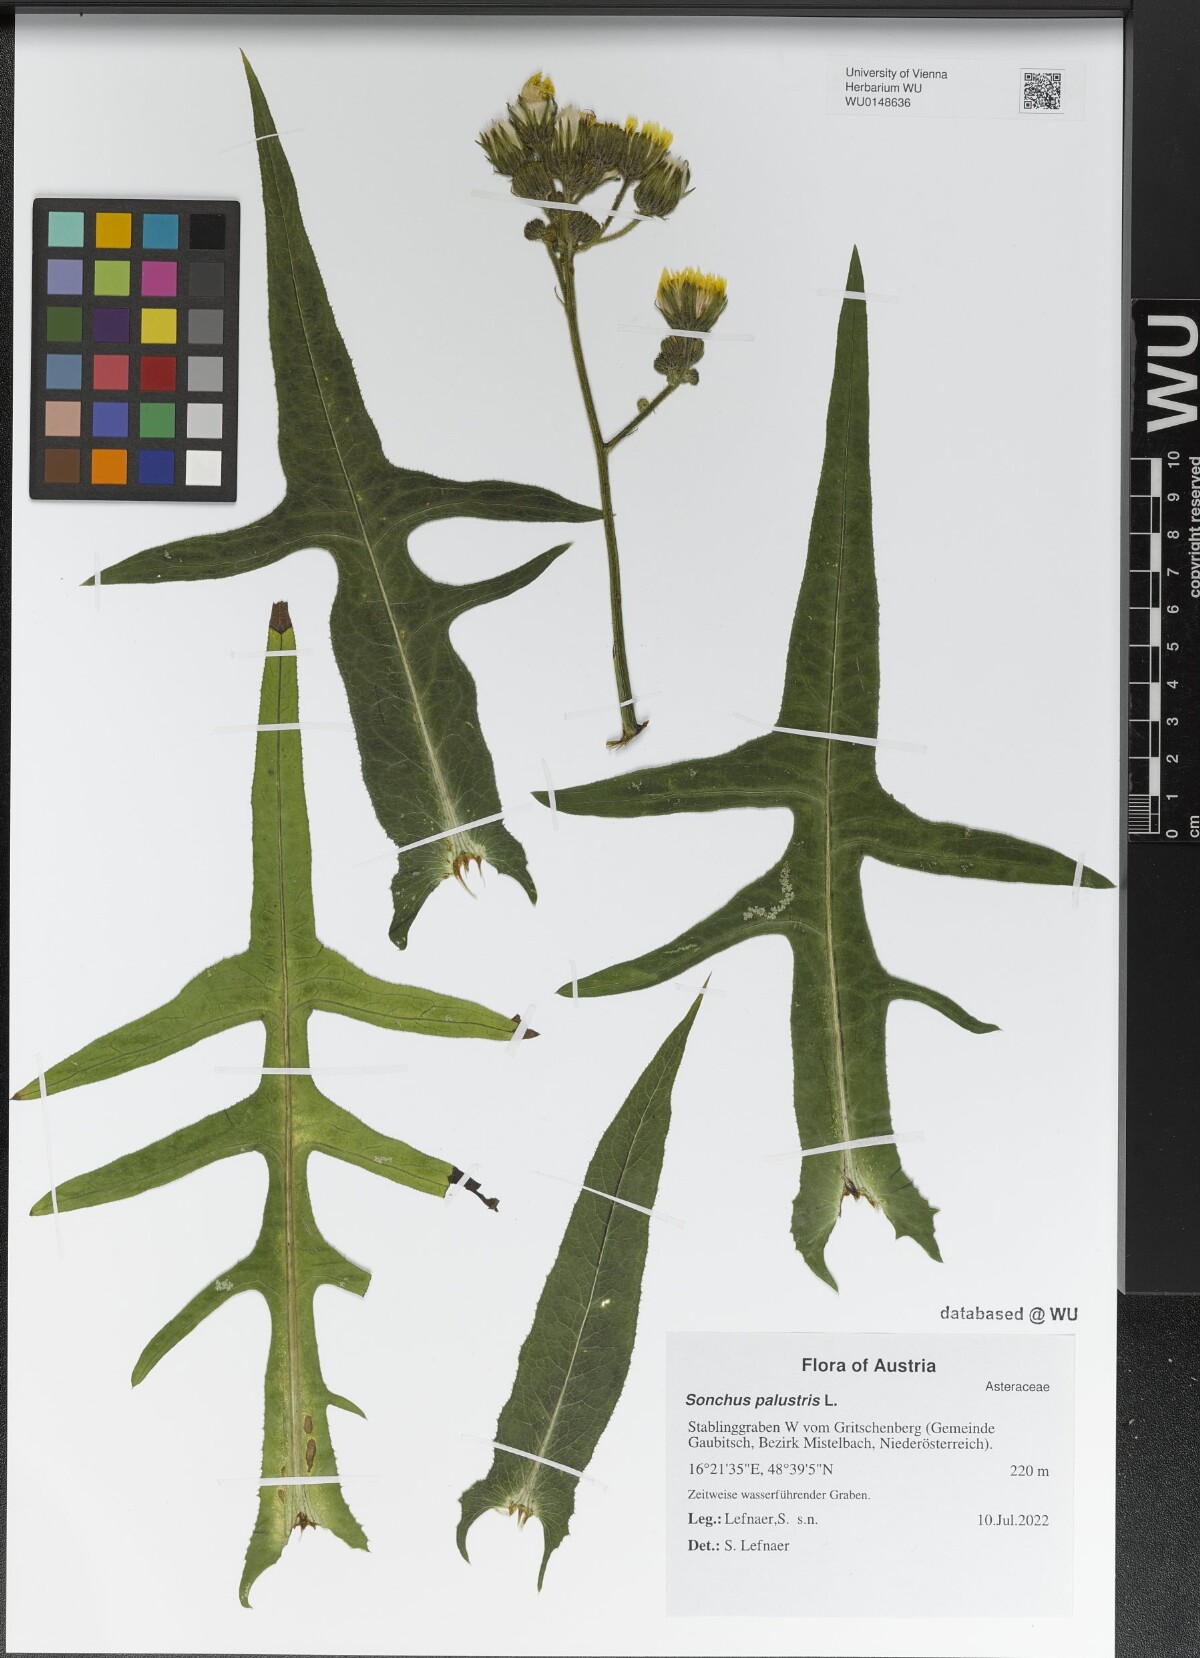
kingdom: Plantae
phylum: Tracheophyta
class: Magnoliopsida
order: Asterales
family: Asteraceae
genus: Sonchus
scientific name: Sonchus palustris
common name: Marsh sow-thistle
